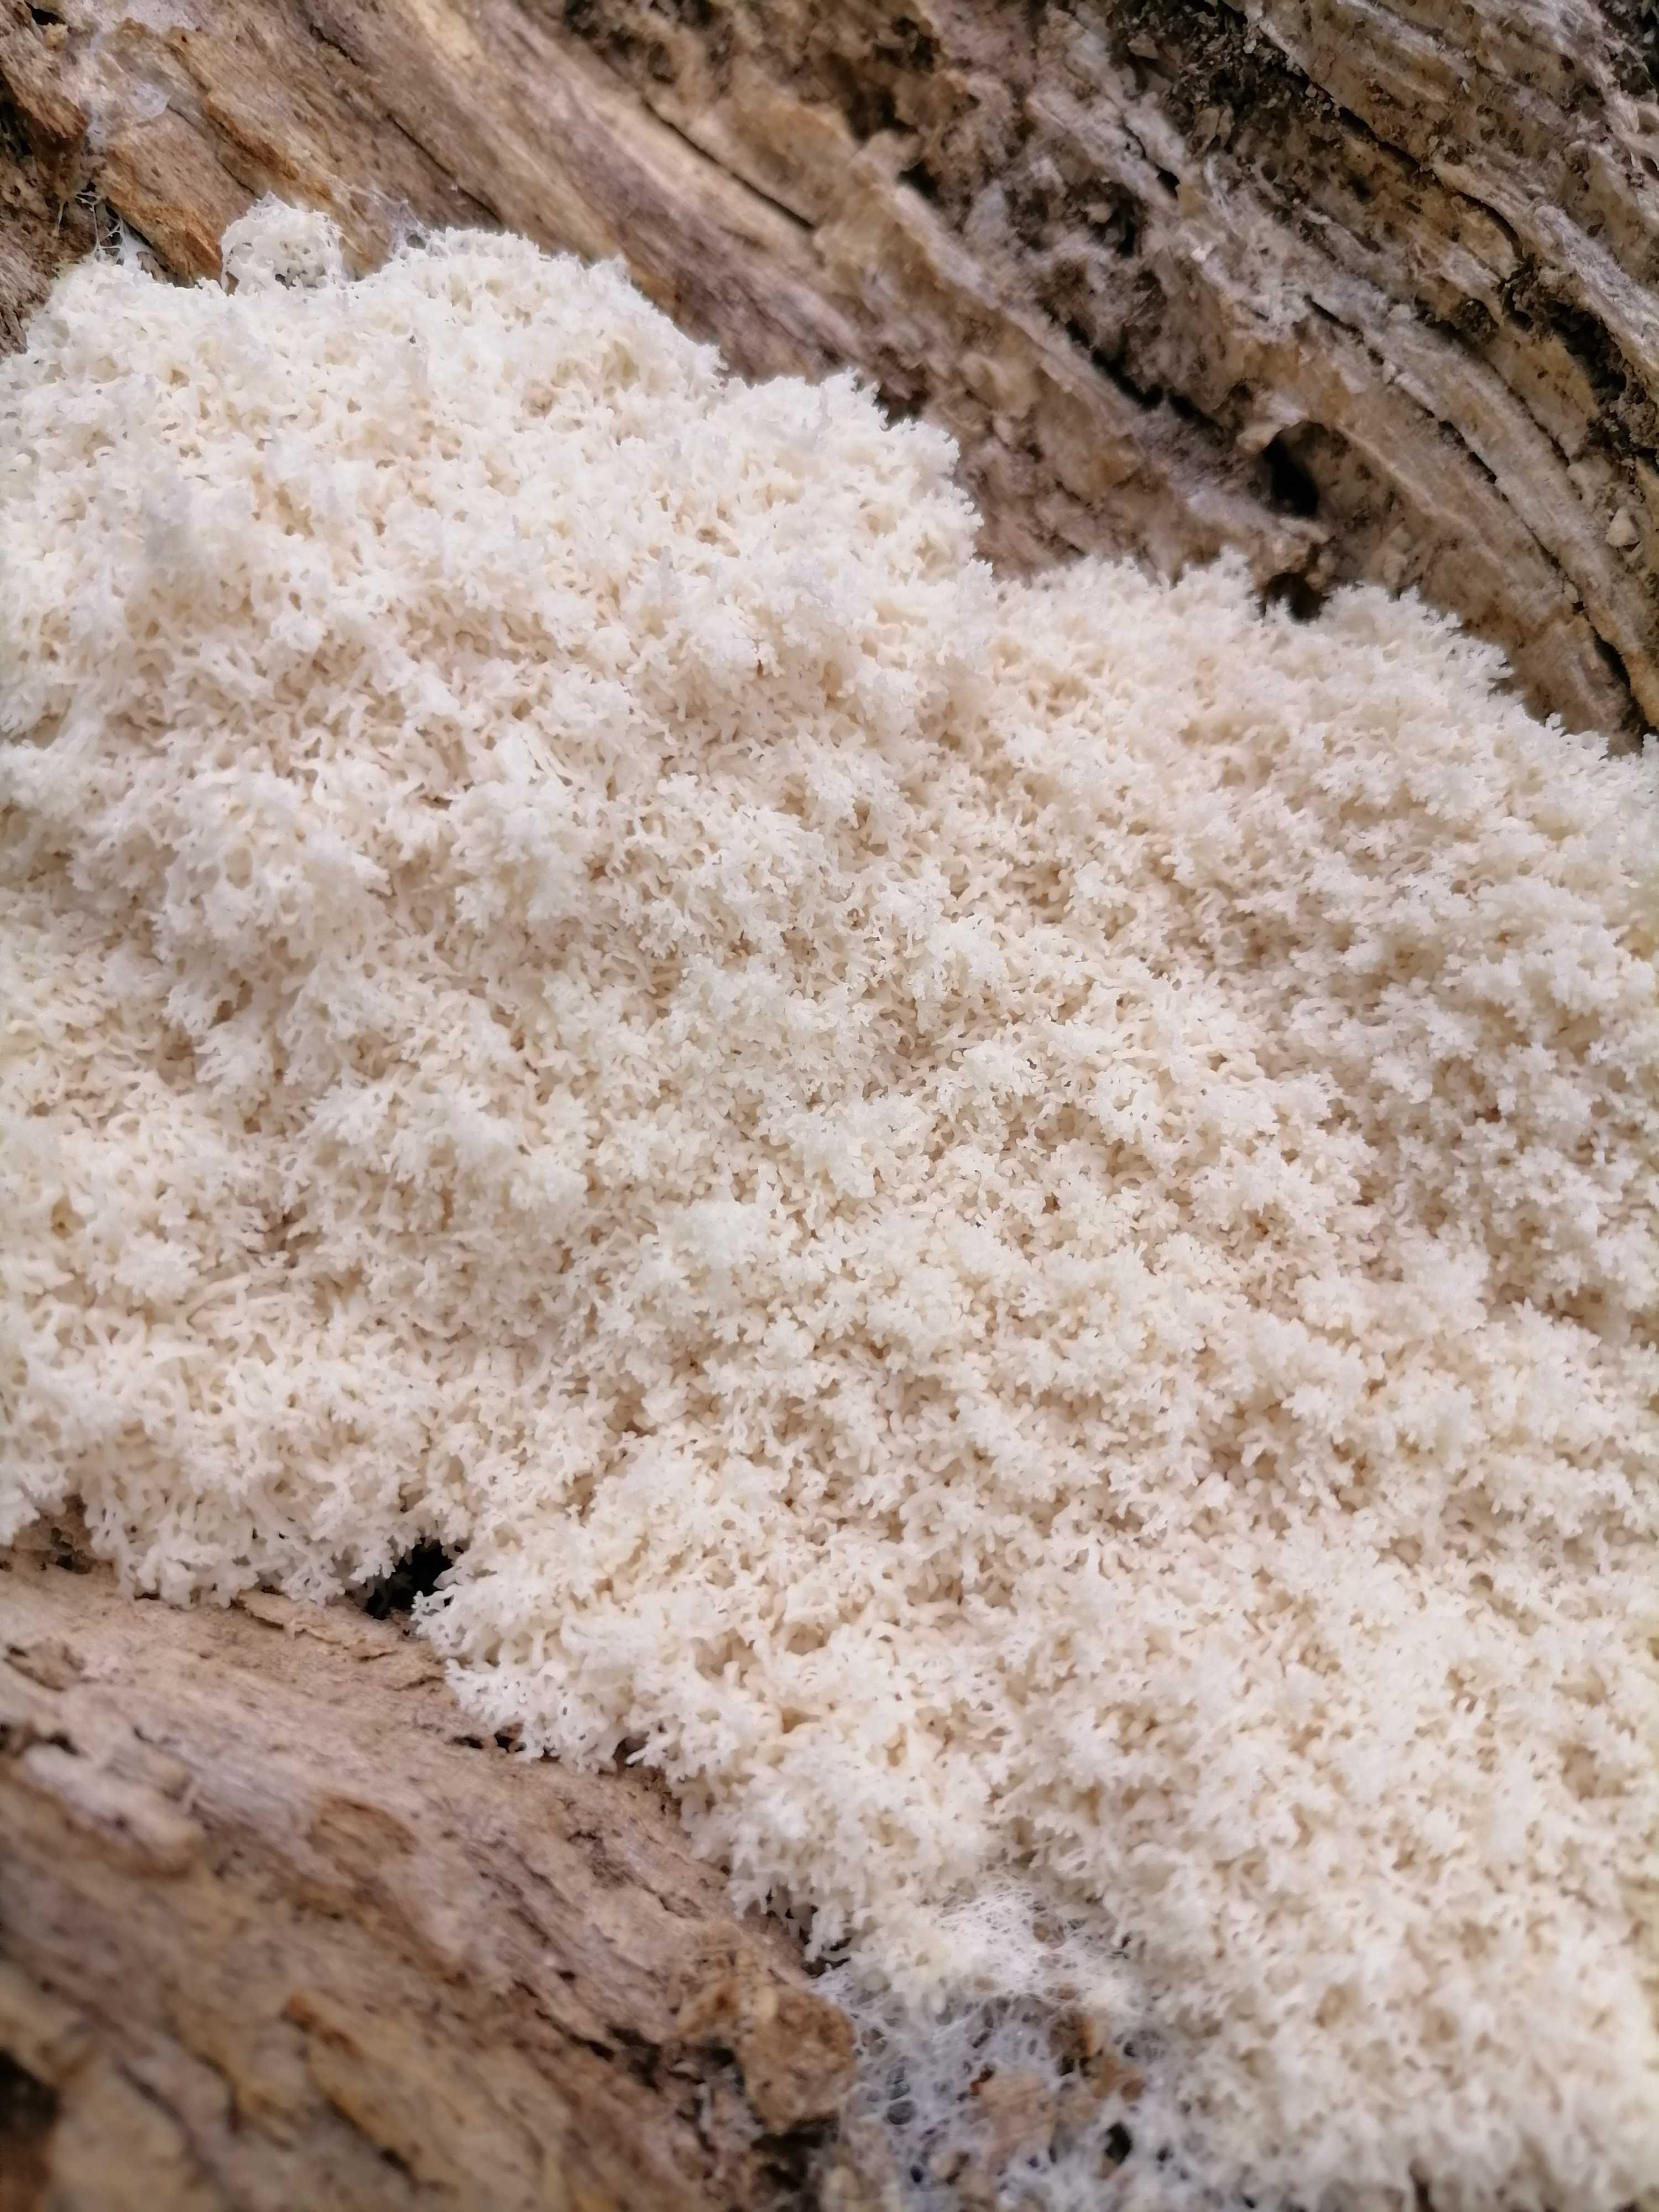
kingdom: Protozoa
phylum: Mycetozoa
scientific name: Mycetozoa
